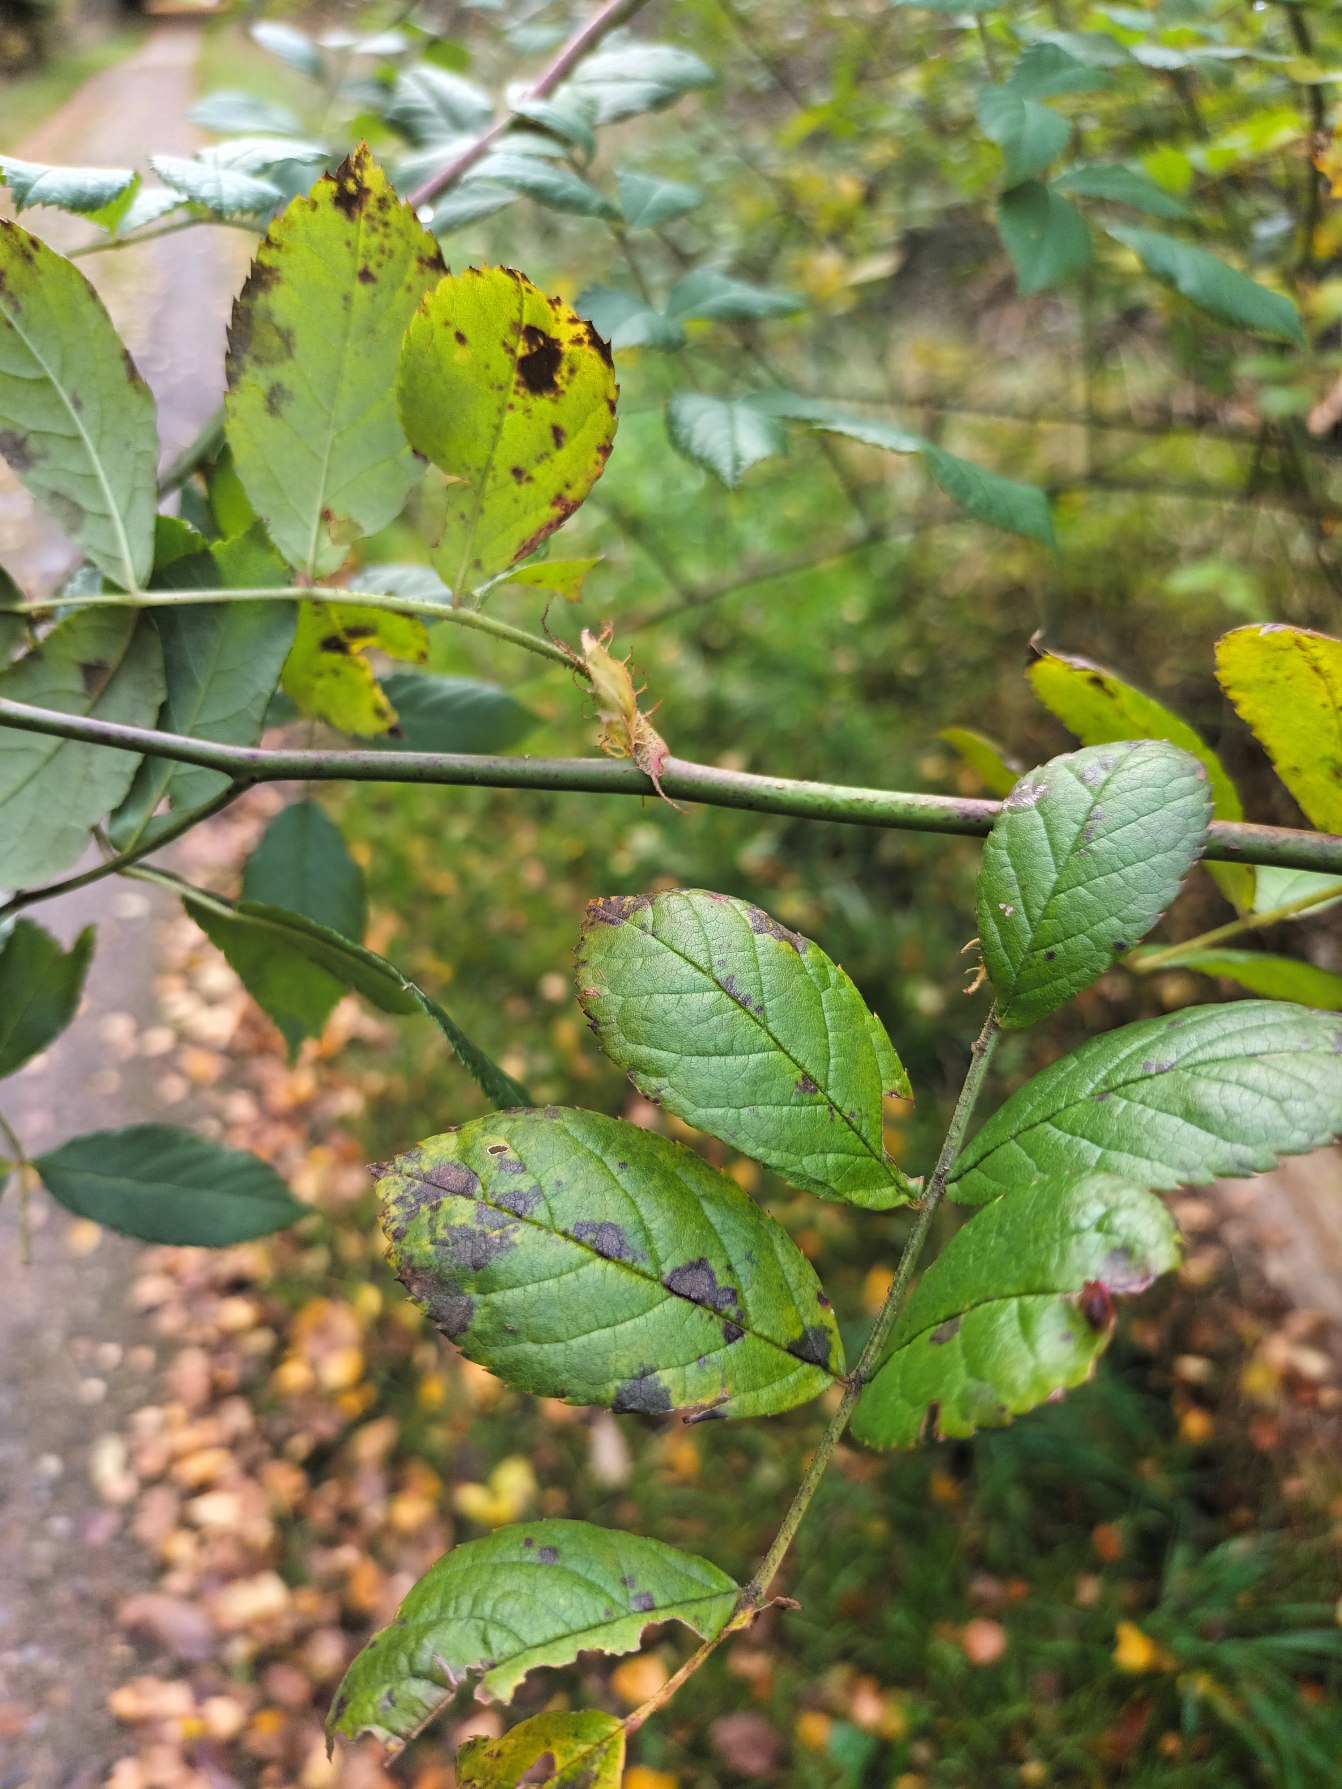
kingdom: Plantae
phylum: Tracheophyta
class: Magnoliopsida
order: Rosales
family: Rosaceae
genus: Rosa
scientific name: Rosa multiflora
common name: Mangeblomstret rose
